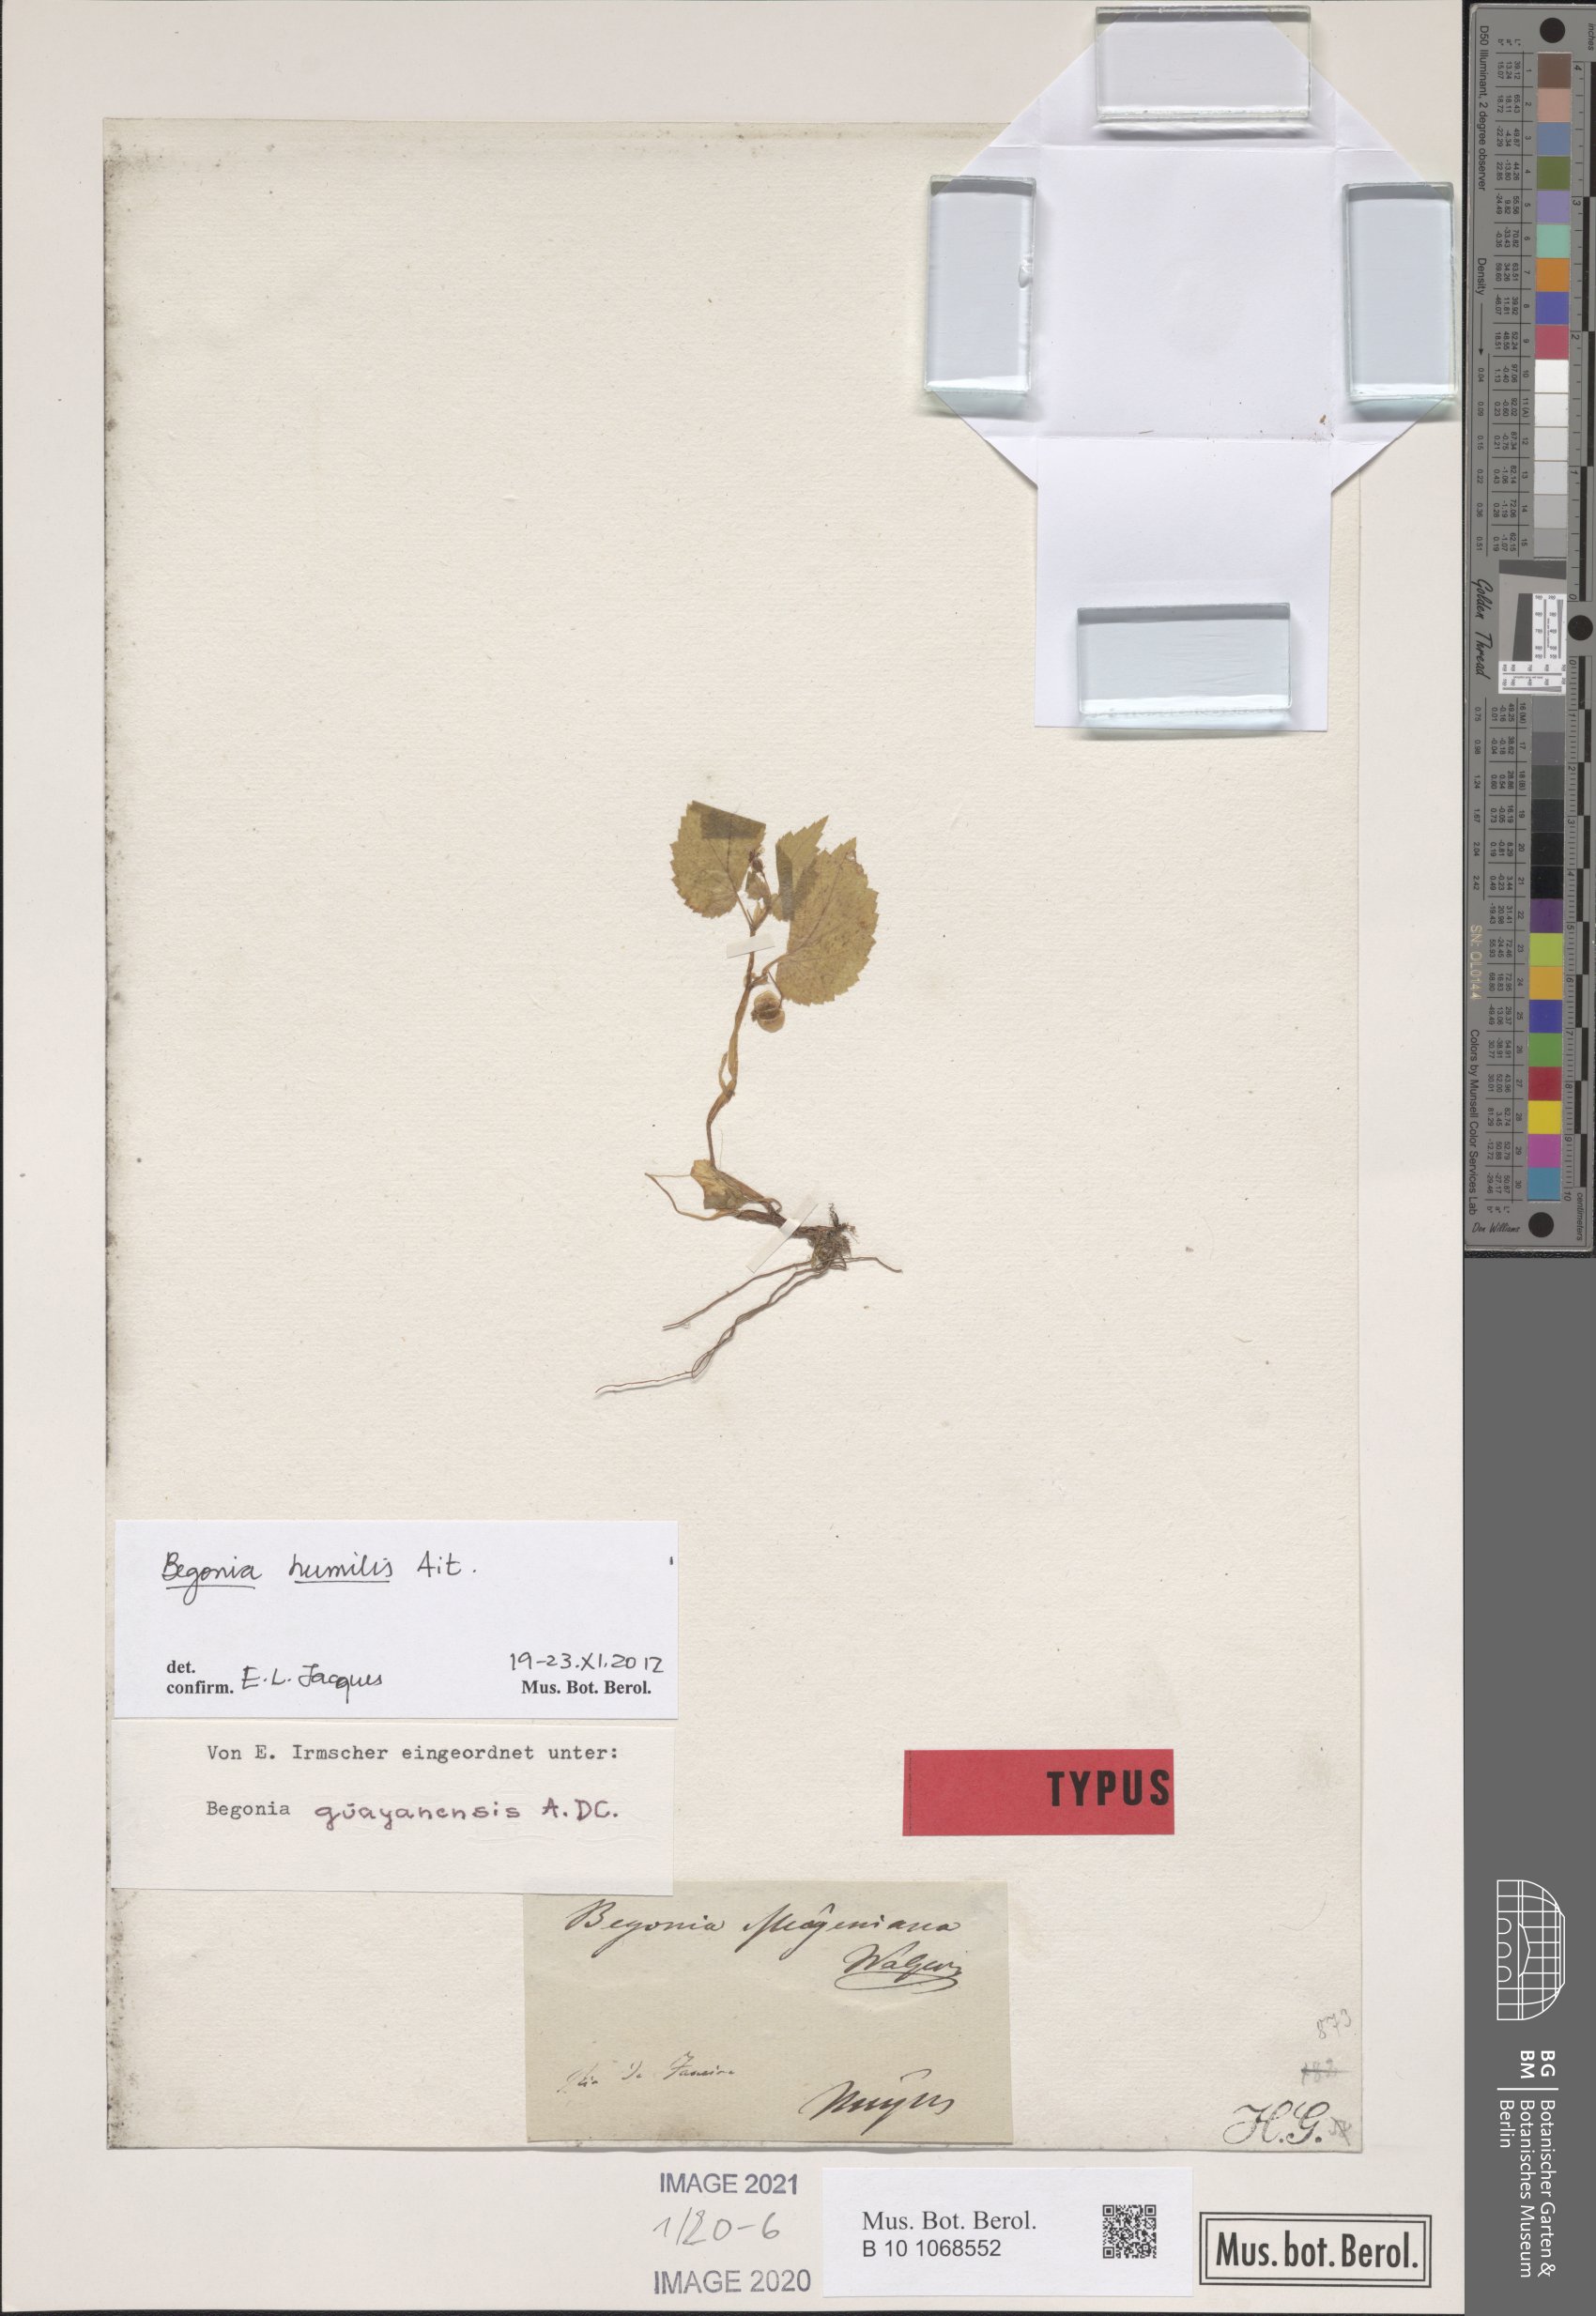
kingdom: Plantae
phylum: Tracheophyta
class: Magnoliopsida
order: Cucurbitales
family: Begoniaceae
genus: Begonia
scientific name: Begonia humilis
